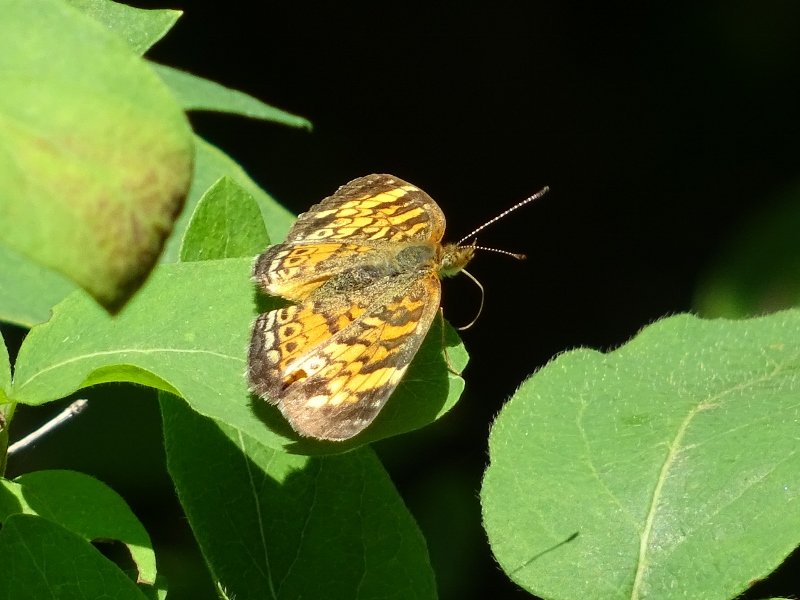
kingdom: Animalia
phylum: Arthropoda
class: Insecta
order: Lepidoptera
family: Nymphalidae
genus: Phyciodes
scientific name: Phyciodes tharos
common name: Pearl Crescent
